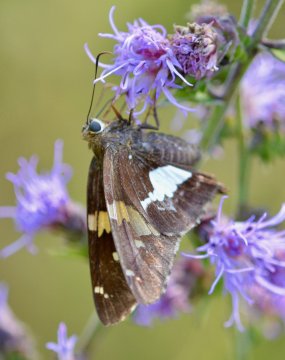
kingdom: Animalia
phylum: Arthropoda
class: Insecta
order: Lepidoptera
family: Hesperiidae
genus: Epargyreus
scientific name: Epargyreus clarus
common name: Silver-spotted Skipper
